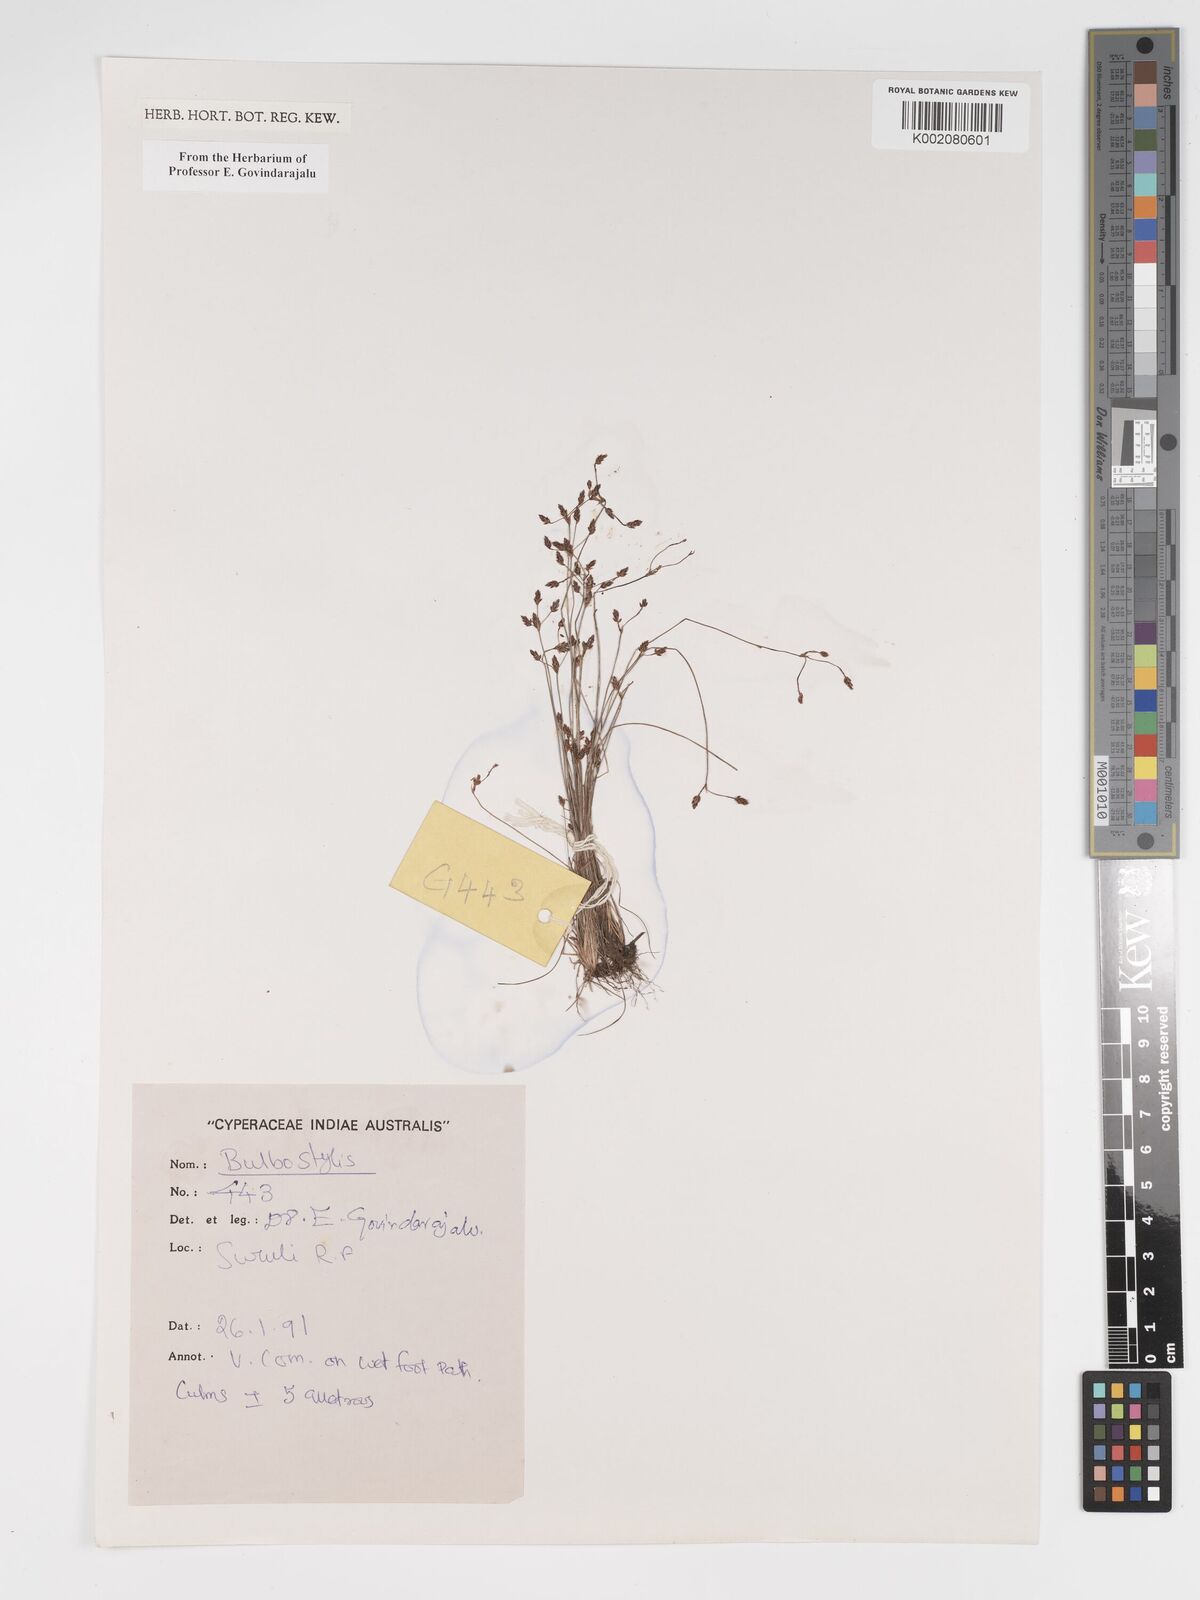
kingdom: Plantae
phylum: Tracheophyta
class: Liliopsida
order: Poales
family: Cyperaceae
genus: Bulbostylis
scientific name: Bulbostylis
